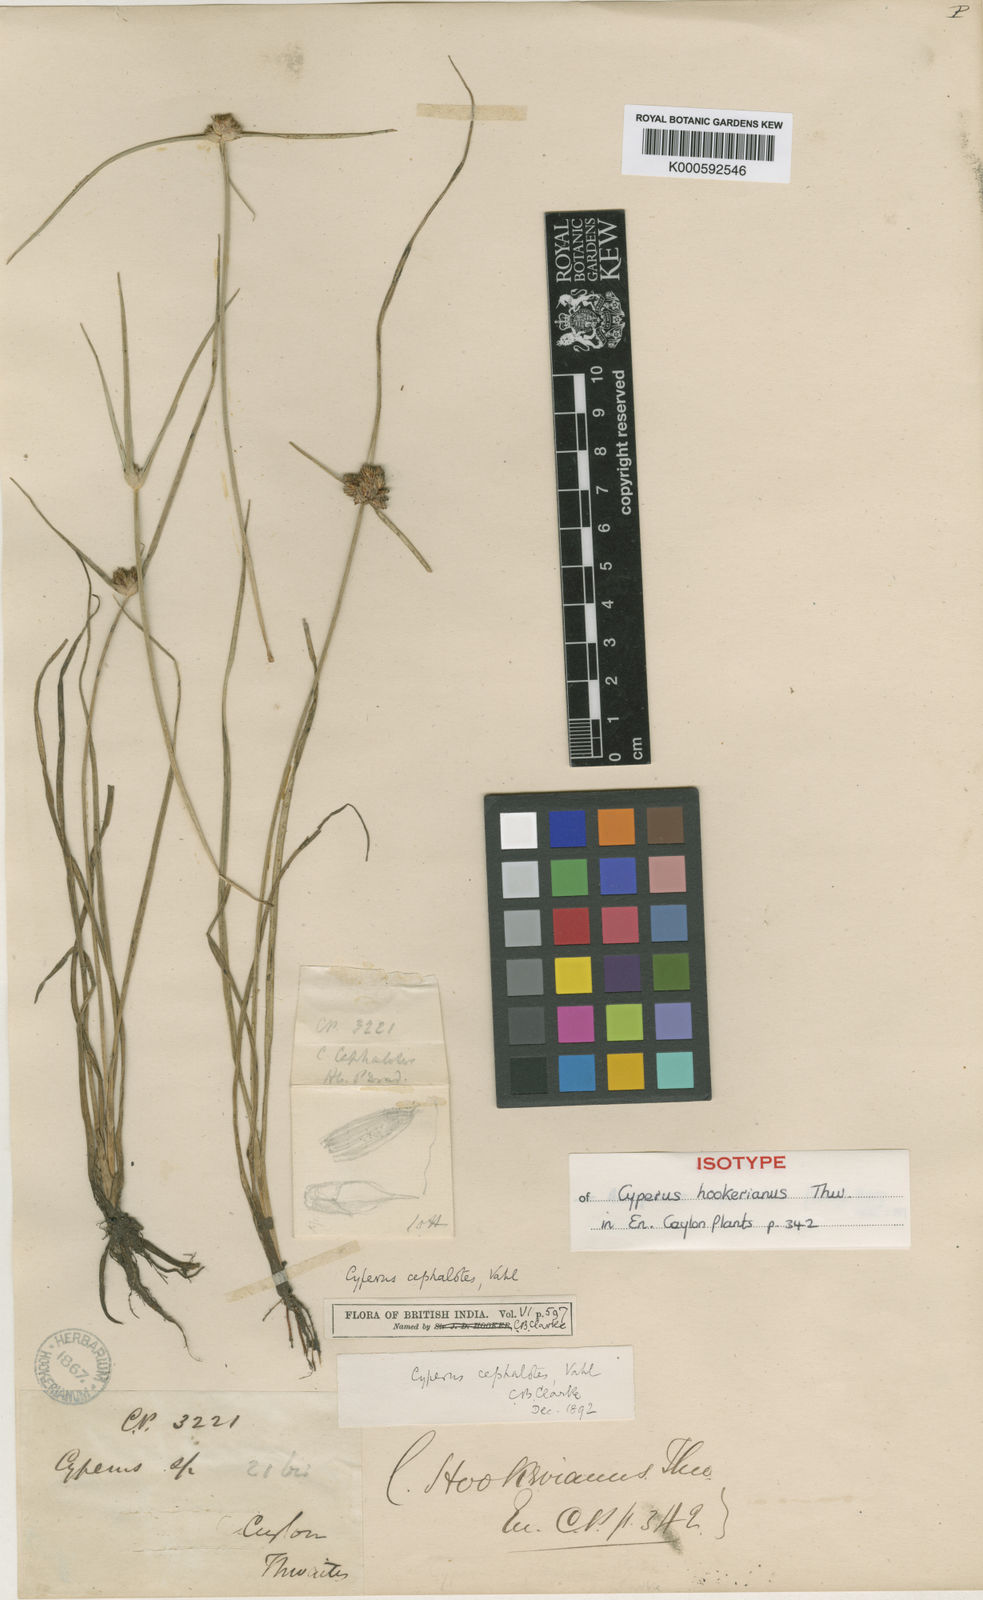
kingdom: Plantae
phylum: Tracheophyta
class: Liliopsida
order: Poales
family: Cyperaceae
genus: Cyperus
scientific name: Cyperus cephalotes
